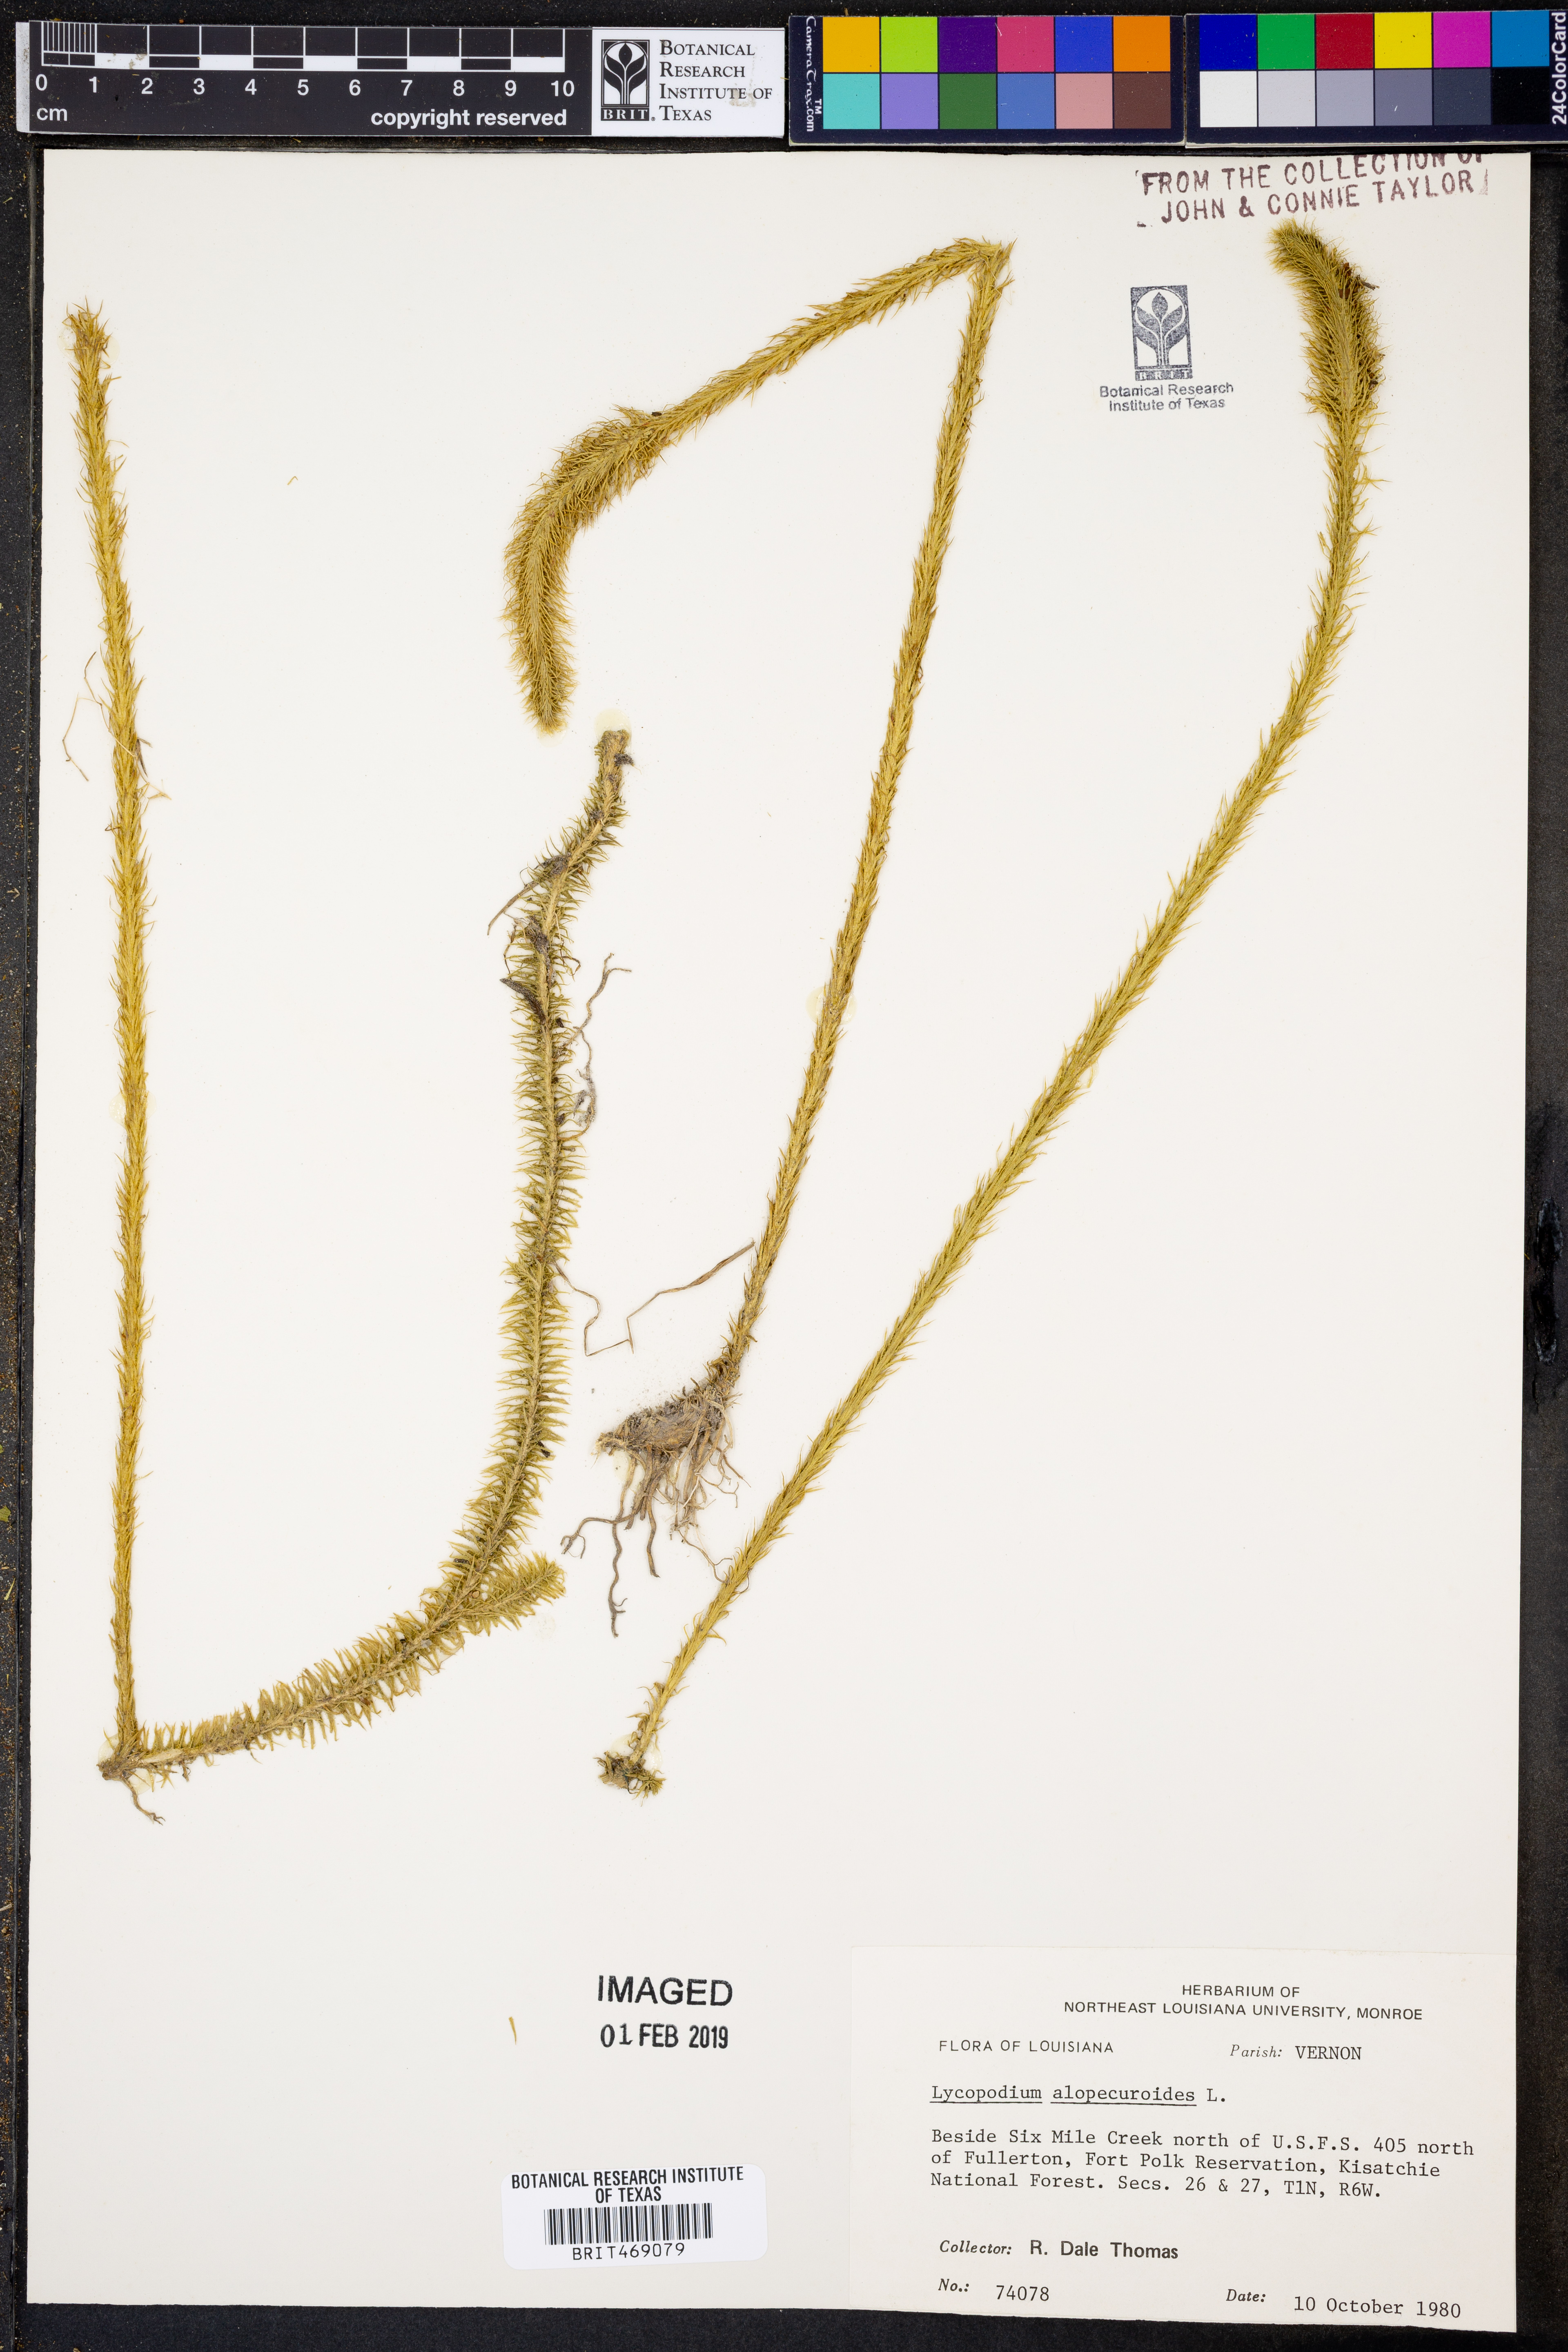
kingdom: Plantae
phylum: Tracheophyta
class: Lycopodiopsida
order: Lycopodiales
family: Lycopodiaceae
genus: Lycopodiella
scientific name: Lycopodiella alopecuroides
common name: Foxtail clubmoss
